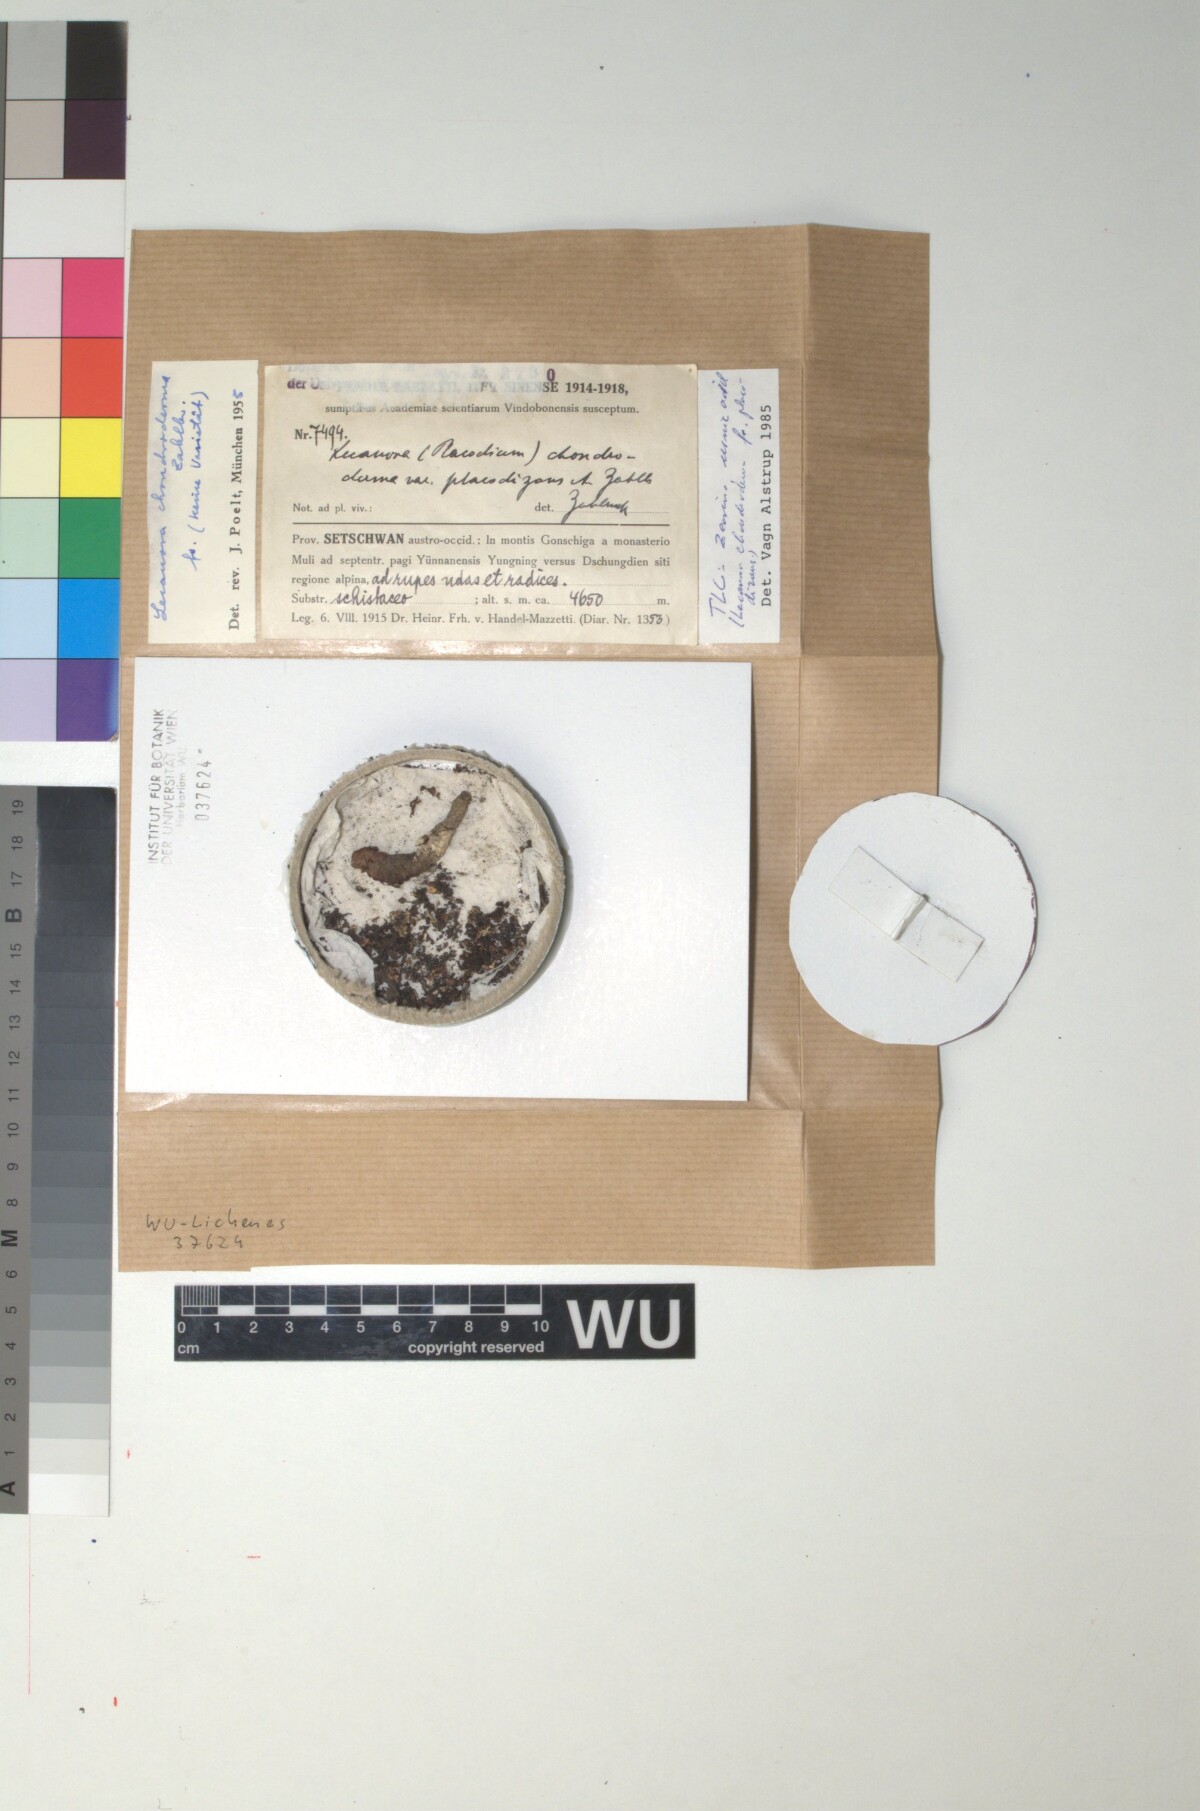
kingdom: Fungi
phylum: Ascomycota
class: Lecanoromycetes
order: Lecanorales
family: Lecanoraceae
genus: Lecanora
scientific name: Lecanora chondroderma
